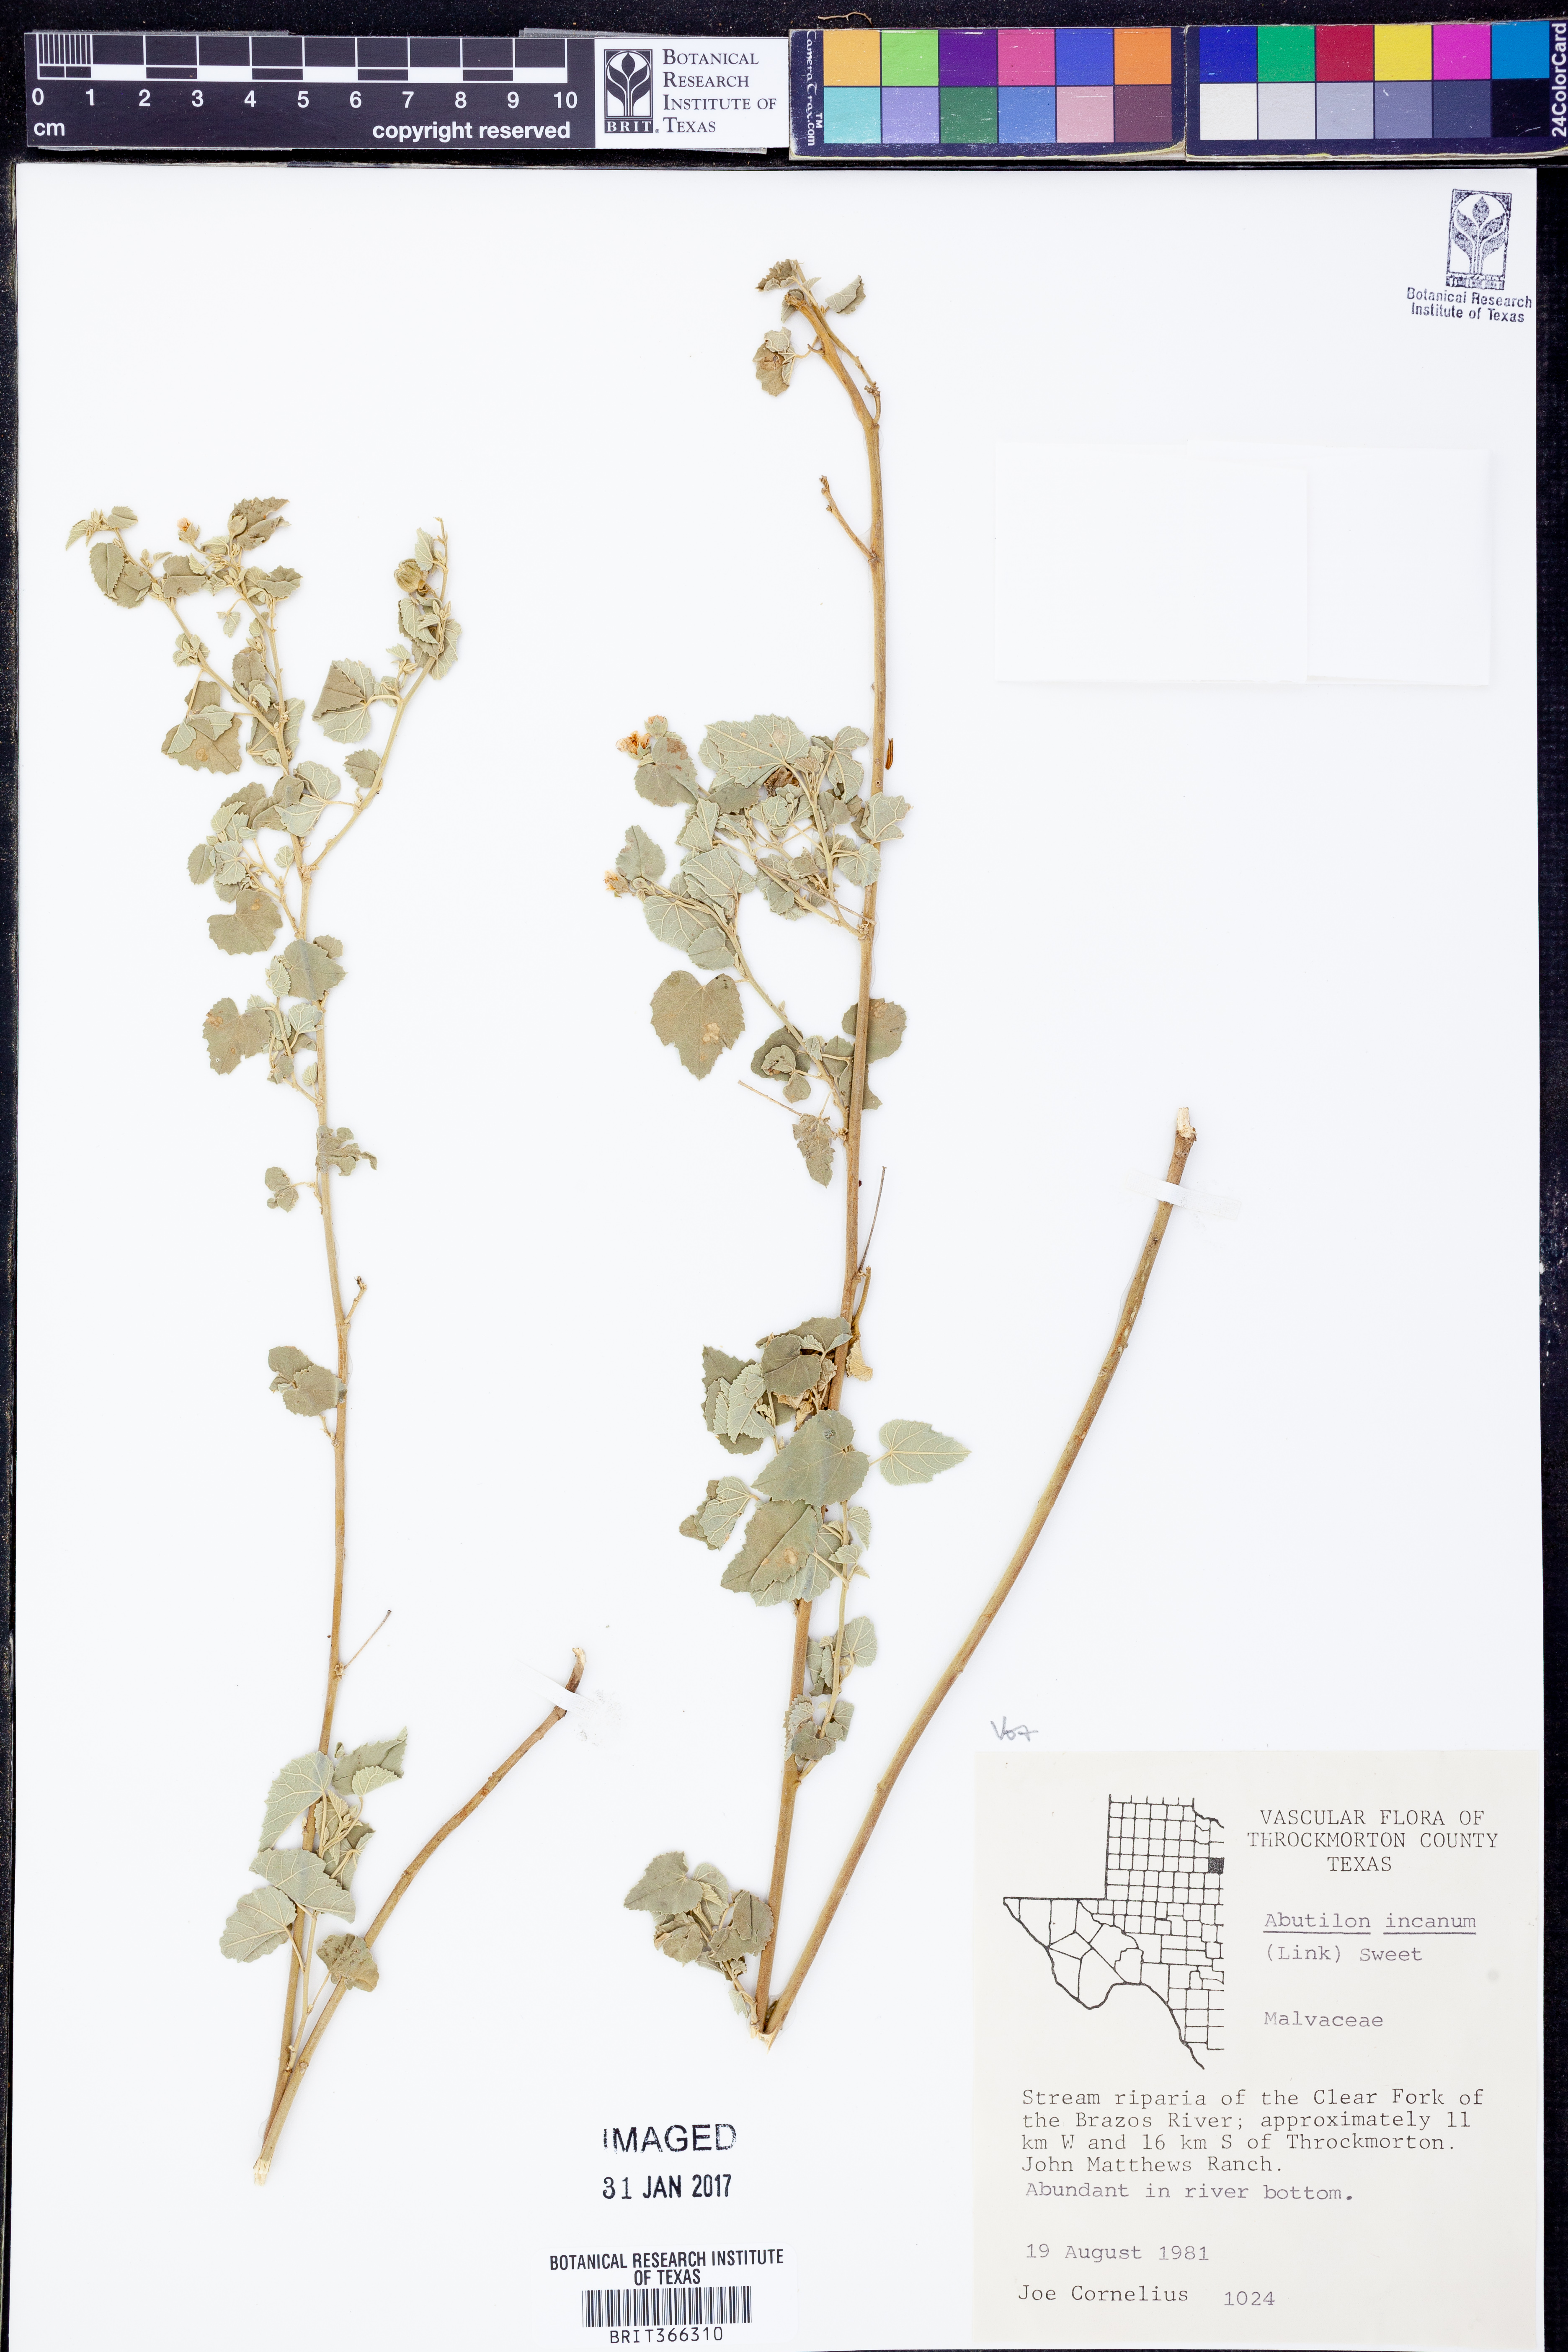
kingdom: Plantae
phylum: Tracheophyta
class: Magnoliopsida
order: Malvales
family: Malvaceae
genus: Abutilon
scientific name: Abutilon incanum
